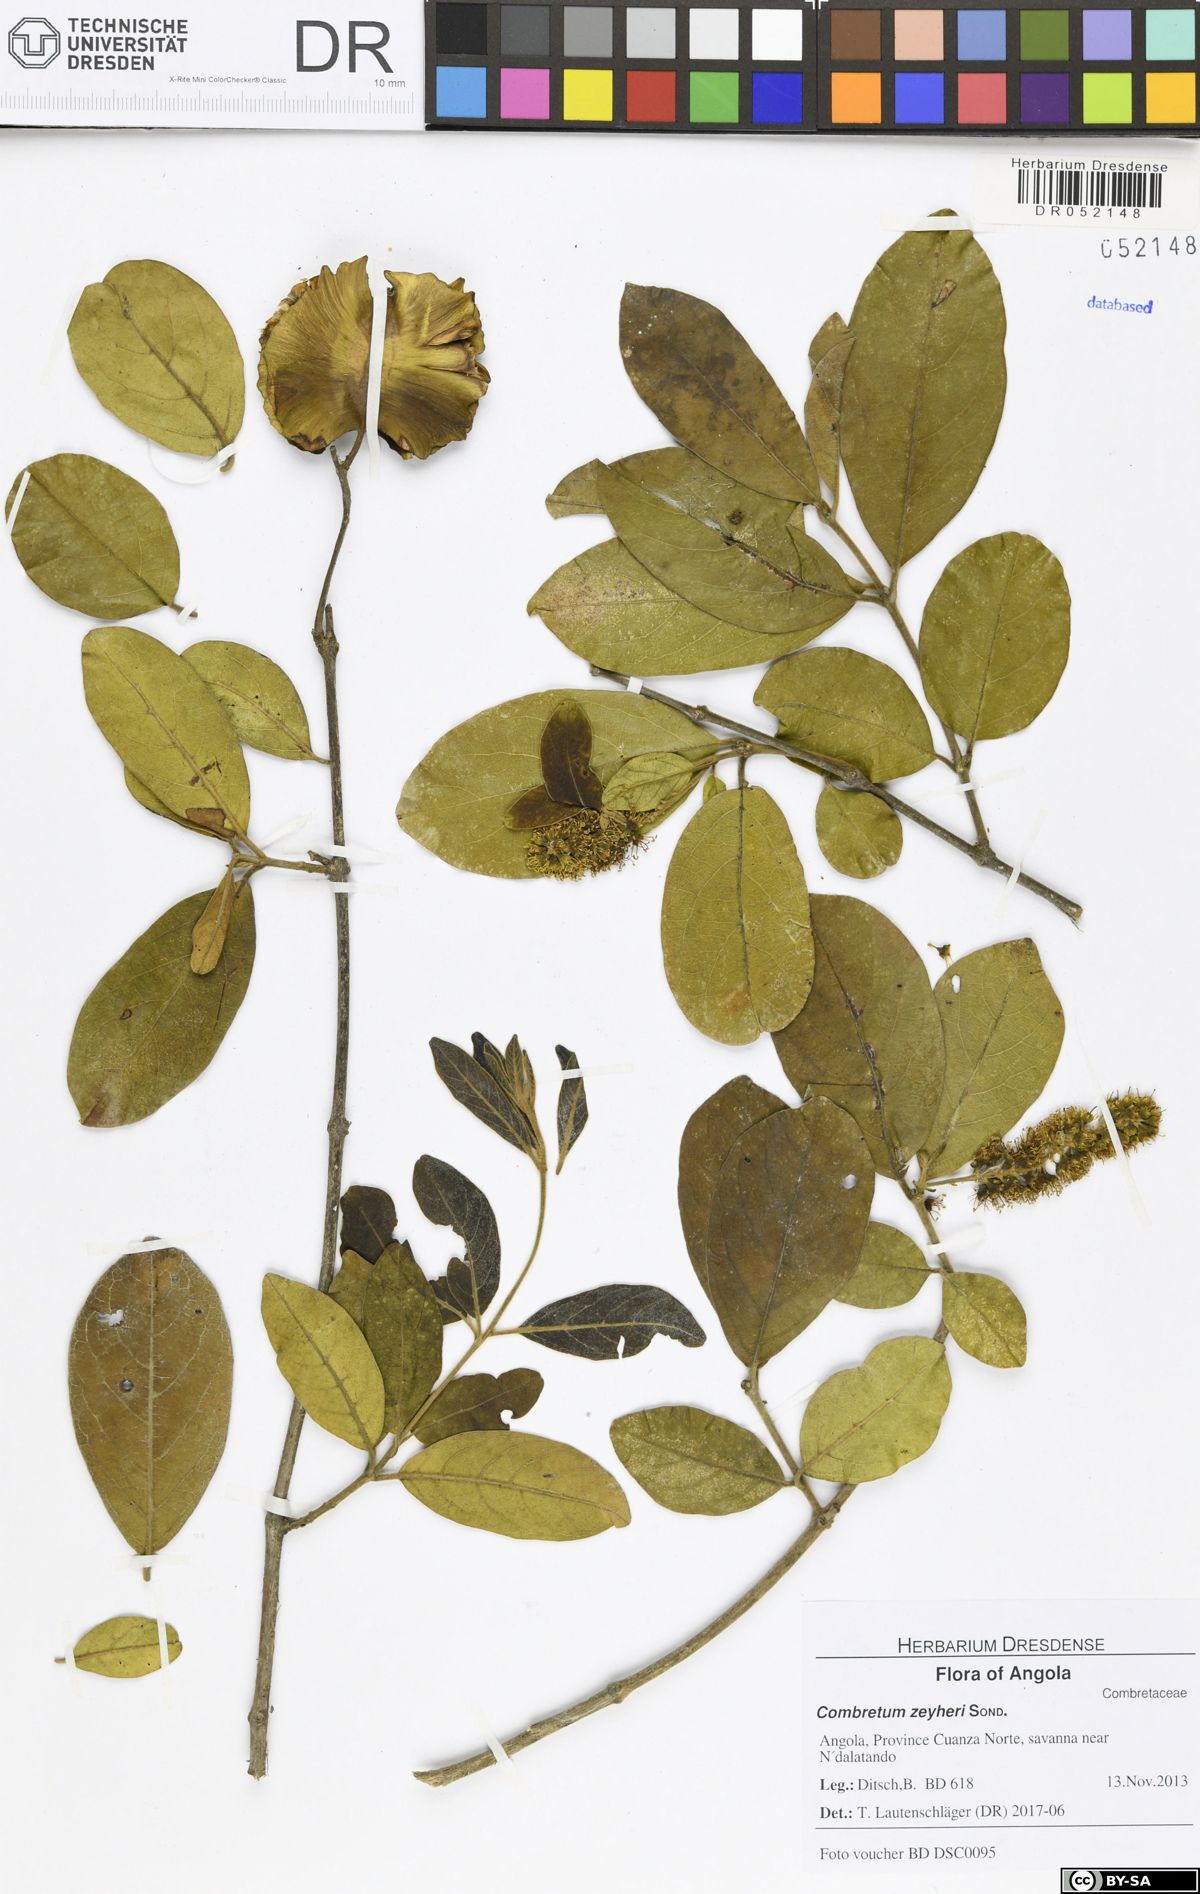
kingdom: Plantae
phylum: Tracheophyta
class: Magnoliopsida
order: Myrtales
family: Combretaceae
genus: Combretum
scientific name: Combretum zeyheri
